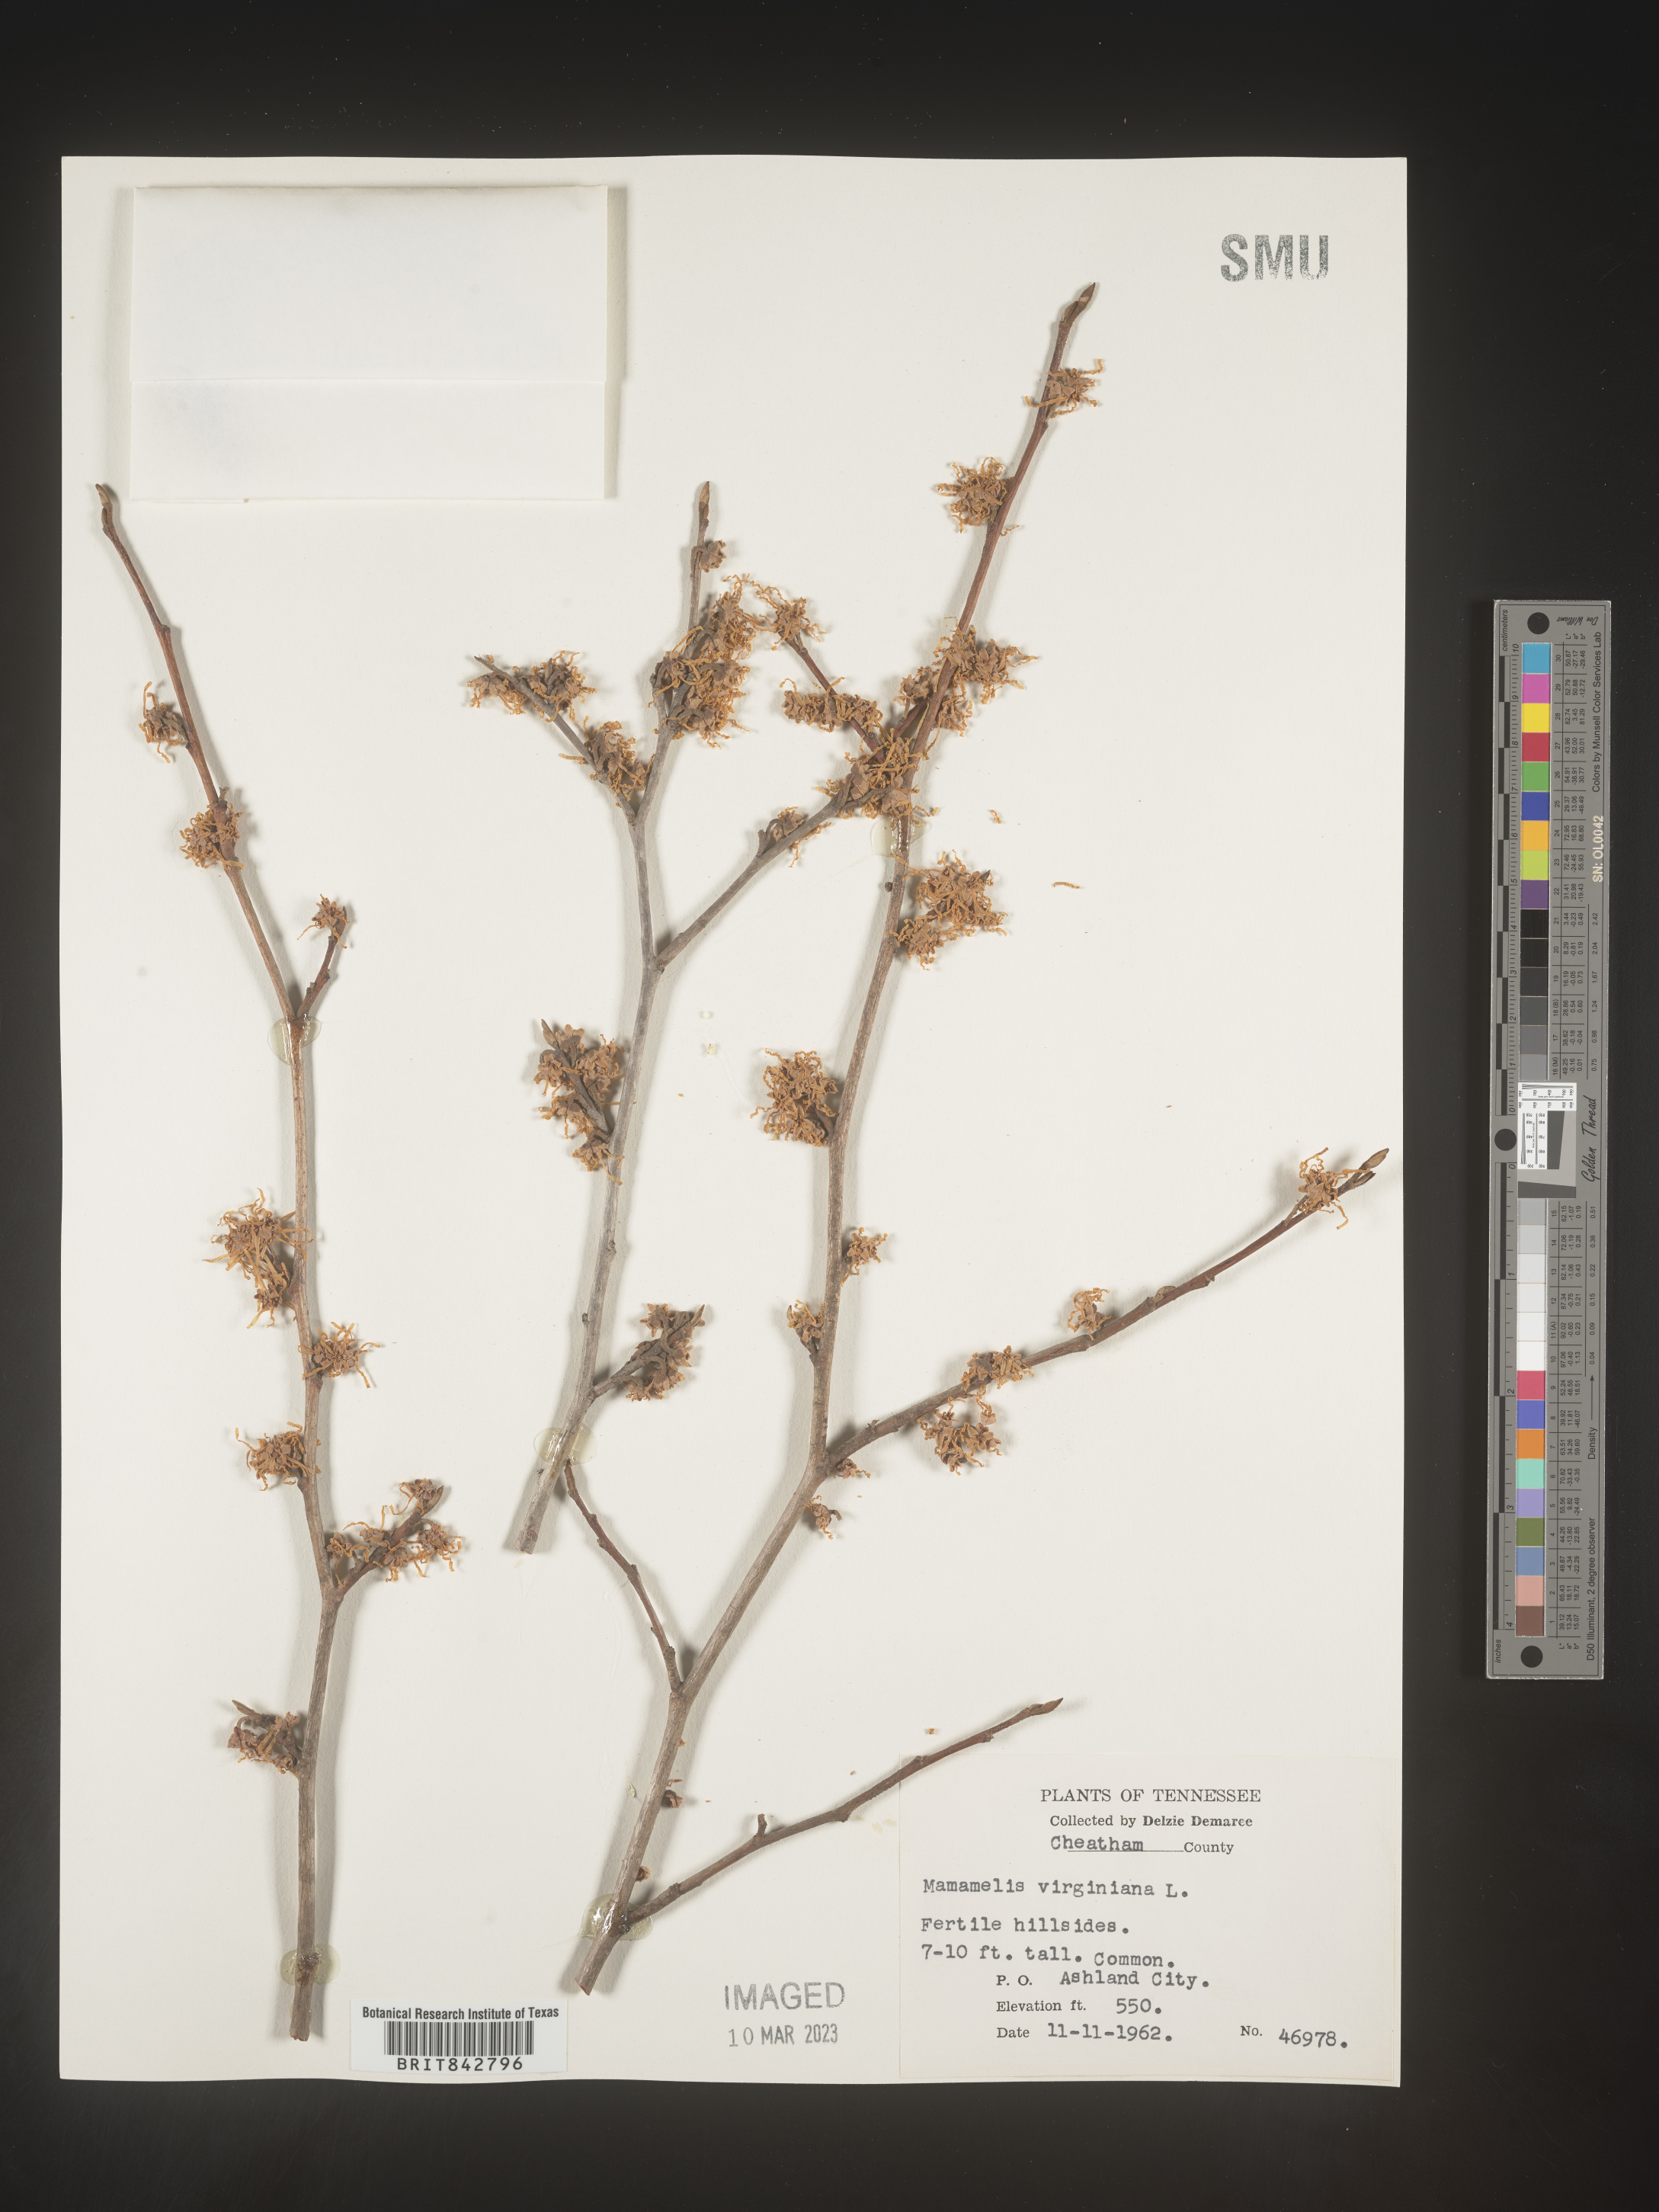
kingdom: Plantae
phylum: Tracheophyta
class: Magnoliopsida
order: Saxifragales
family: Hamamelidaceae
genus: Hamamelis
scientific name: Hamamelis virginiana
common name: Witch-hazel
